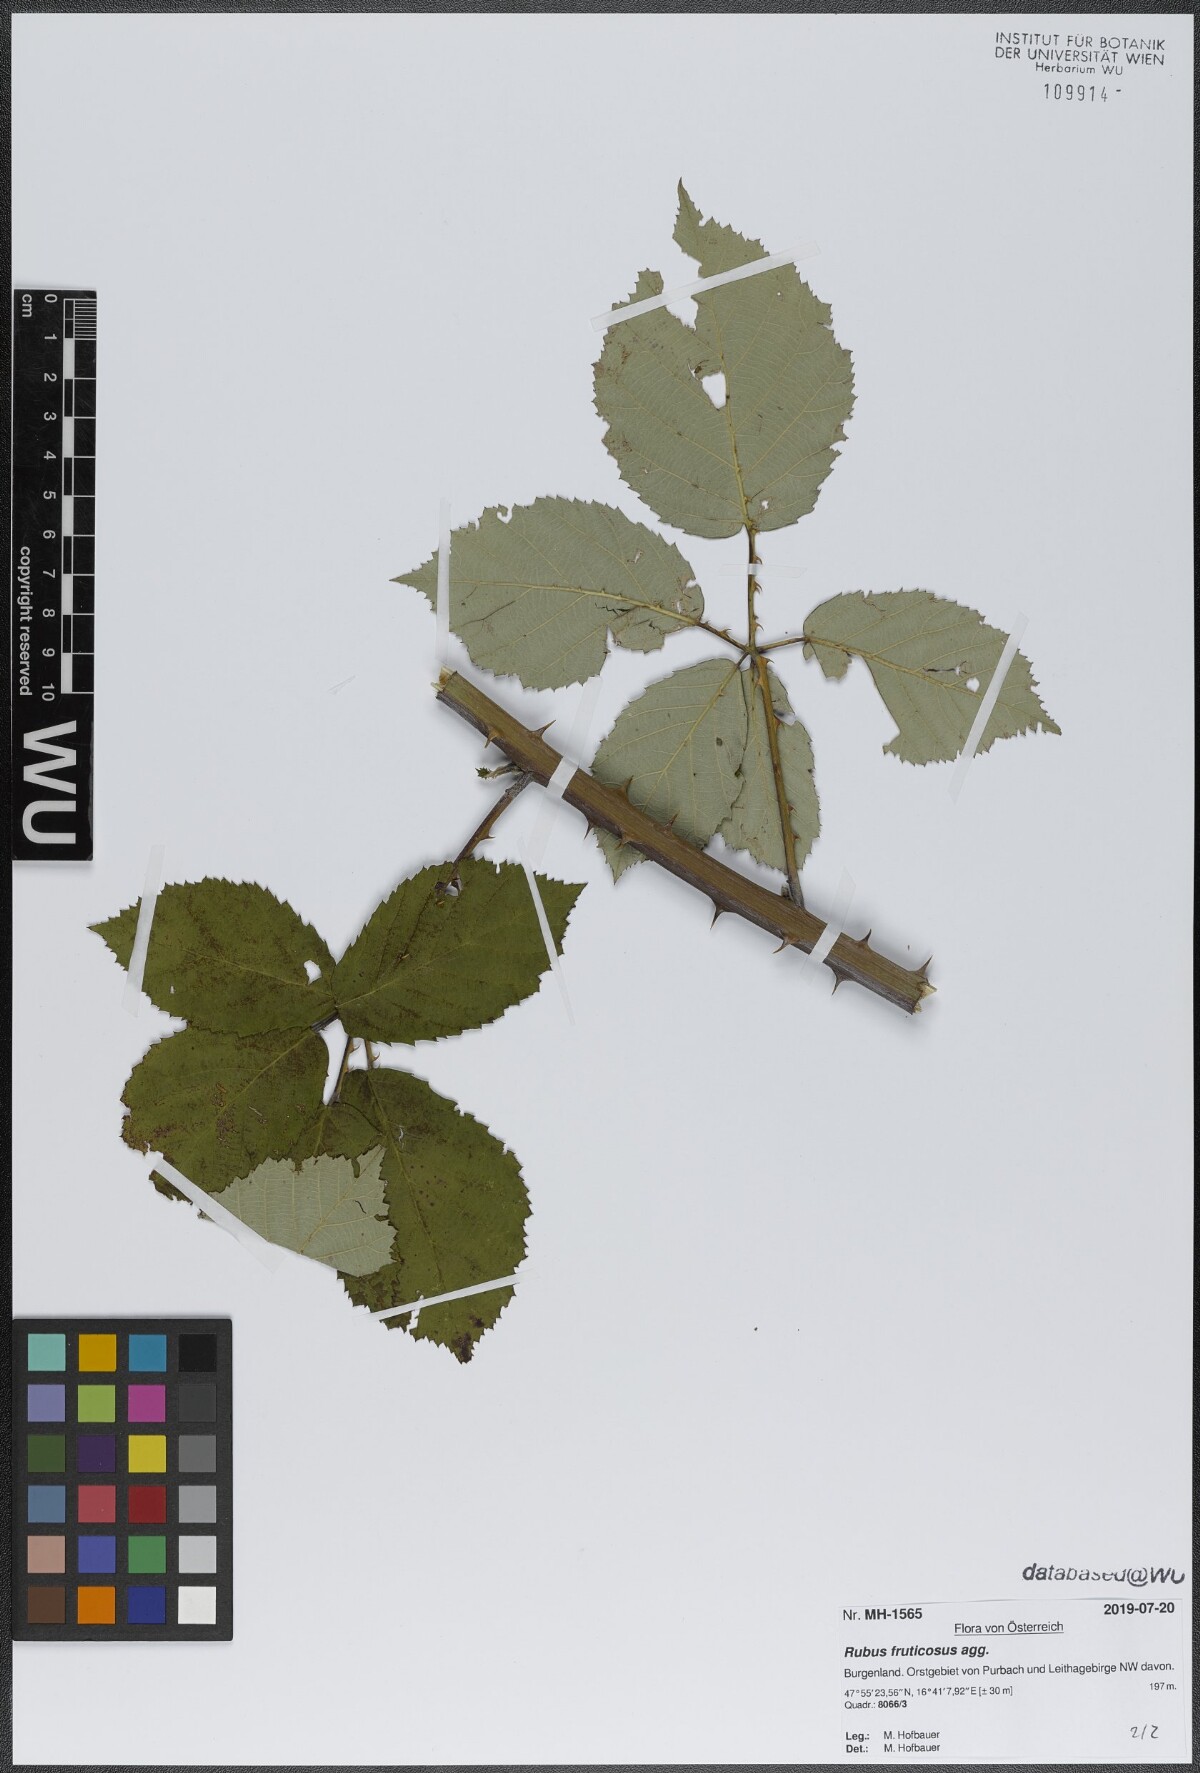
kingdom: Plantae
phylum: Tracheophyta
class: Magnoliopsida
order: Rosales
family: Rosaceae
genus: Rubus
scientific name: Rubus fruticosus
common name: Blackberry, bramble
